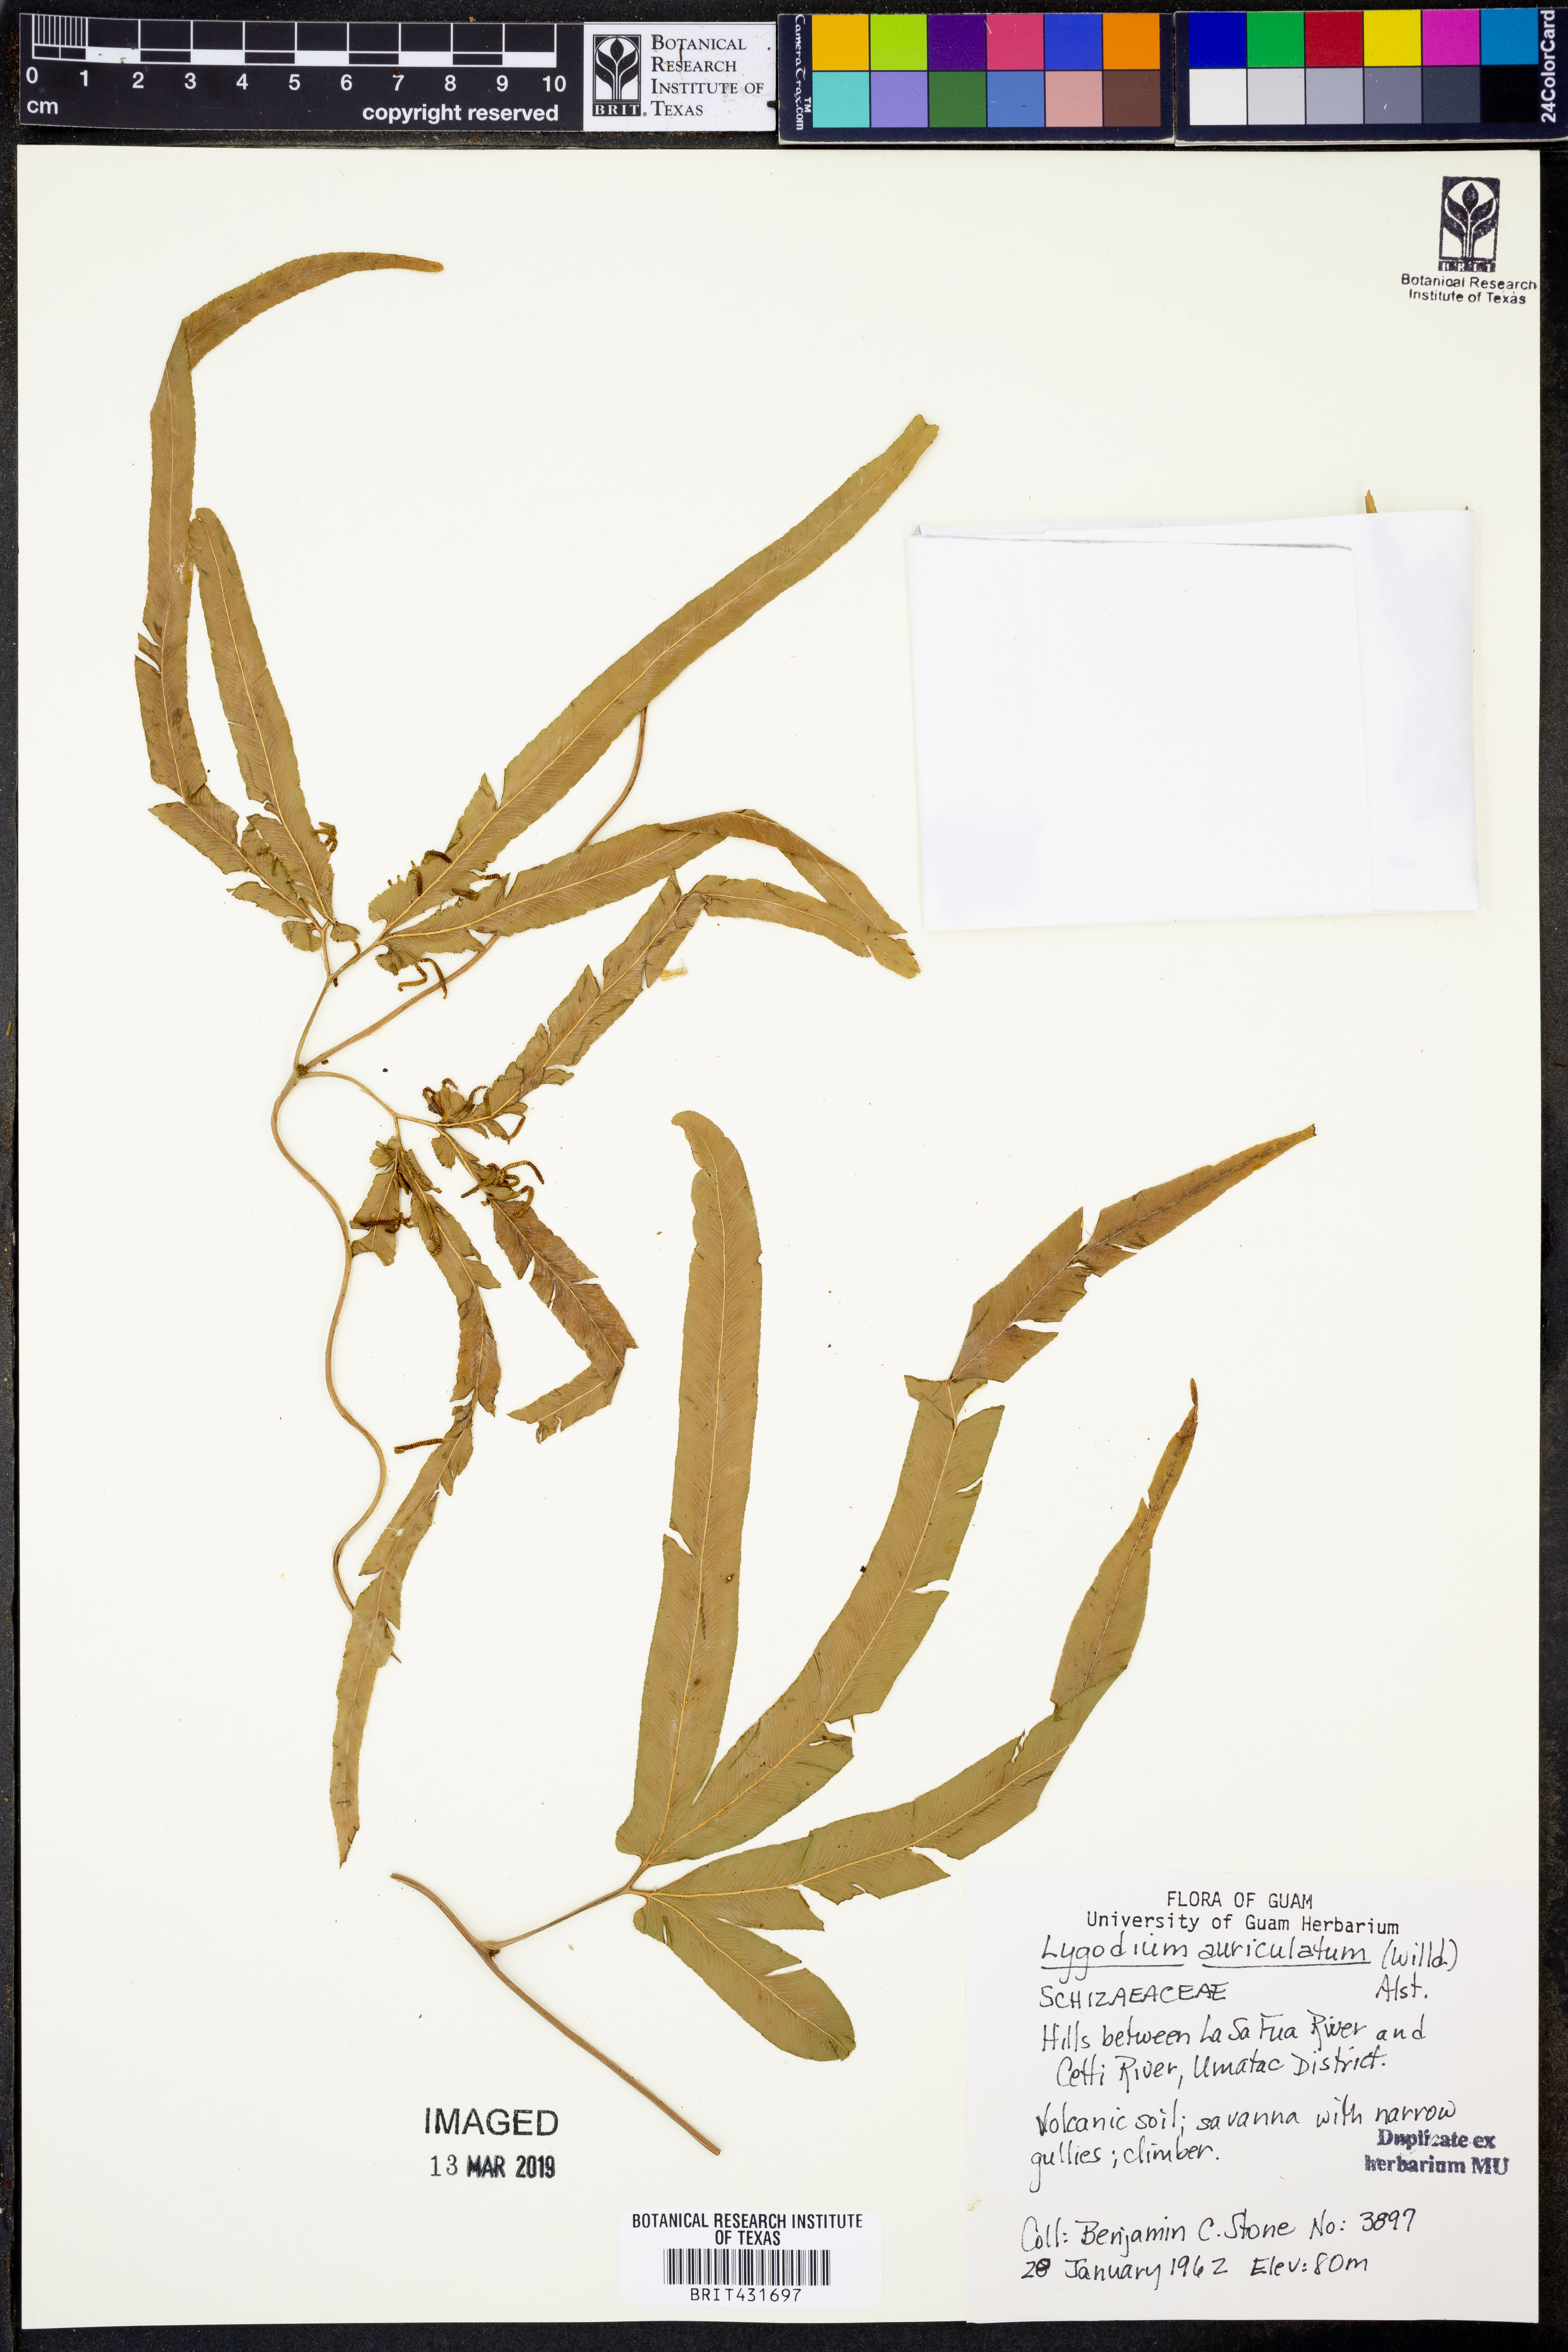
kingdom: Plantae
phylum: Tracheophyta
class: Polypodiopsida
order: Schizaeales
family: Lygodiaceae
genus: Lygodium
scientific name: Lygodium auriculatum
